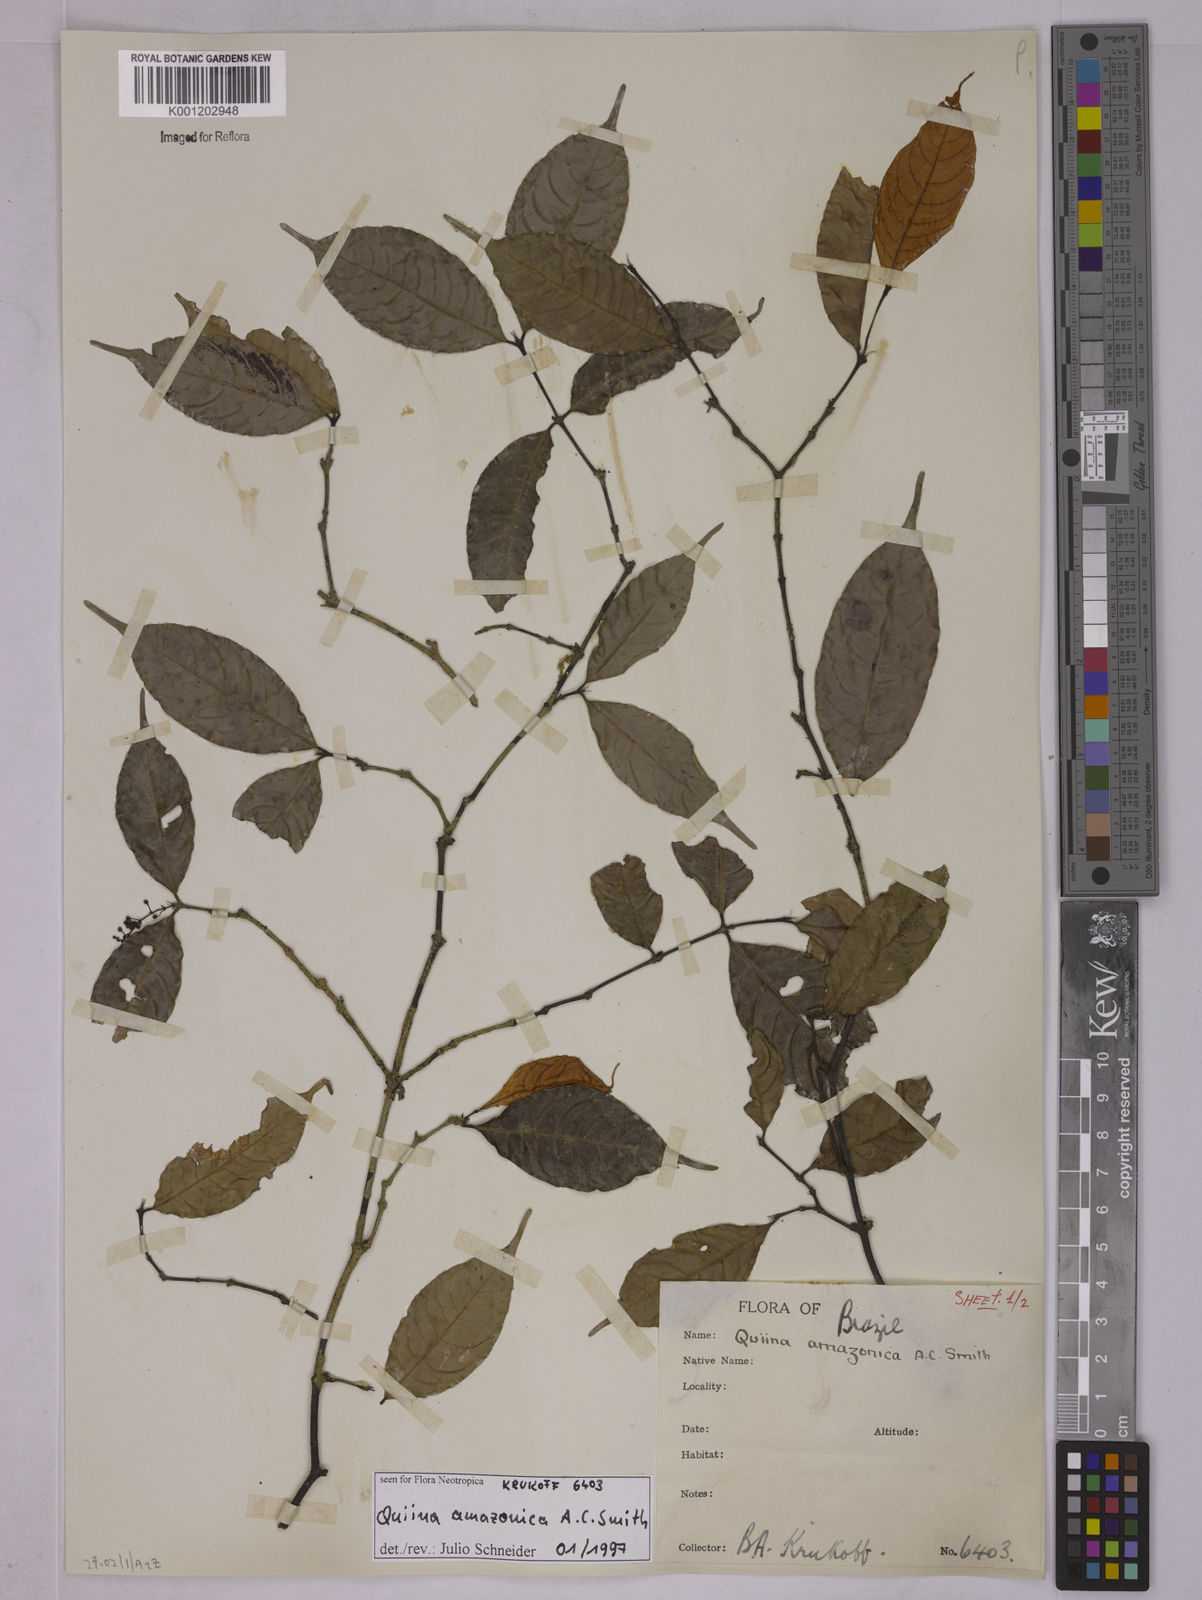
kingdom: Plantae
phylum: Tracheophyta
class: Magnoliopsida
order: Malpighiales
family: Quiinaceae
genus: Quiina
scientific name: Quiina amazonica
